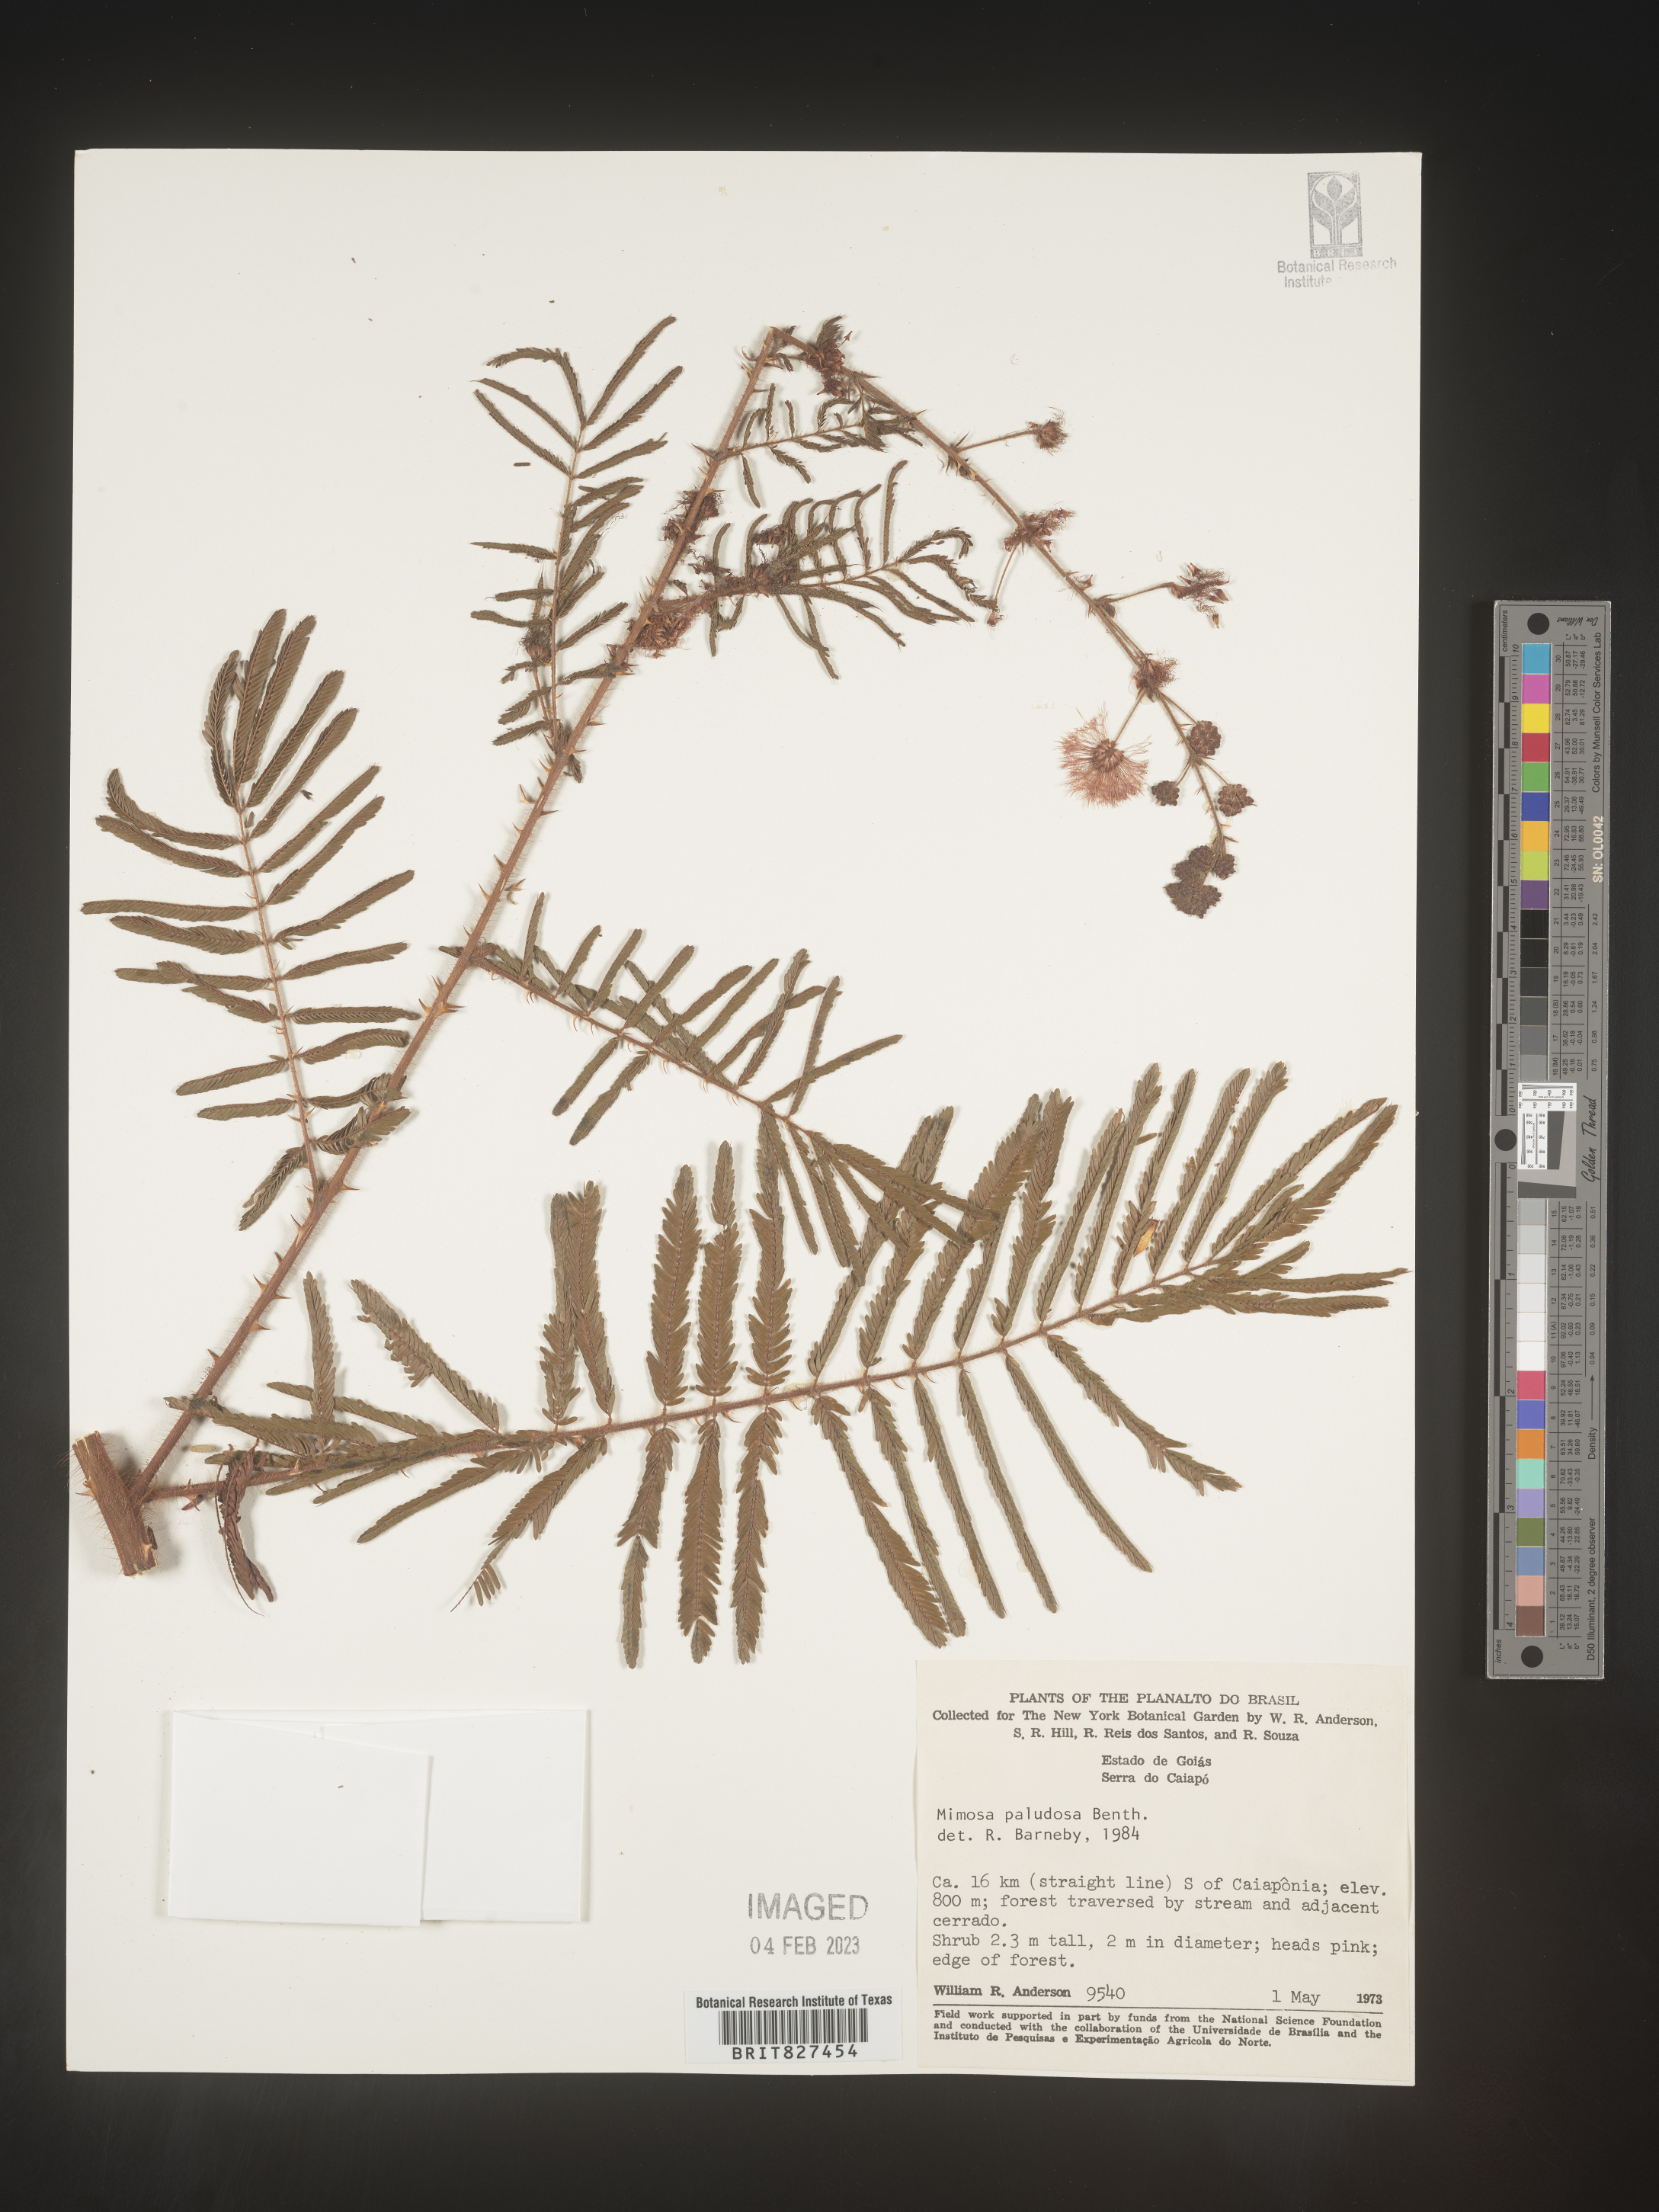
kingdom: Plantae
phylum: Tracheophyta
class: Magnoliopsida
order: Fabales
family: Fabaceae
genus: Mimosa
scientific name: Mimosa
